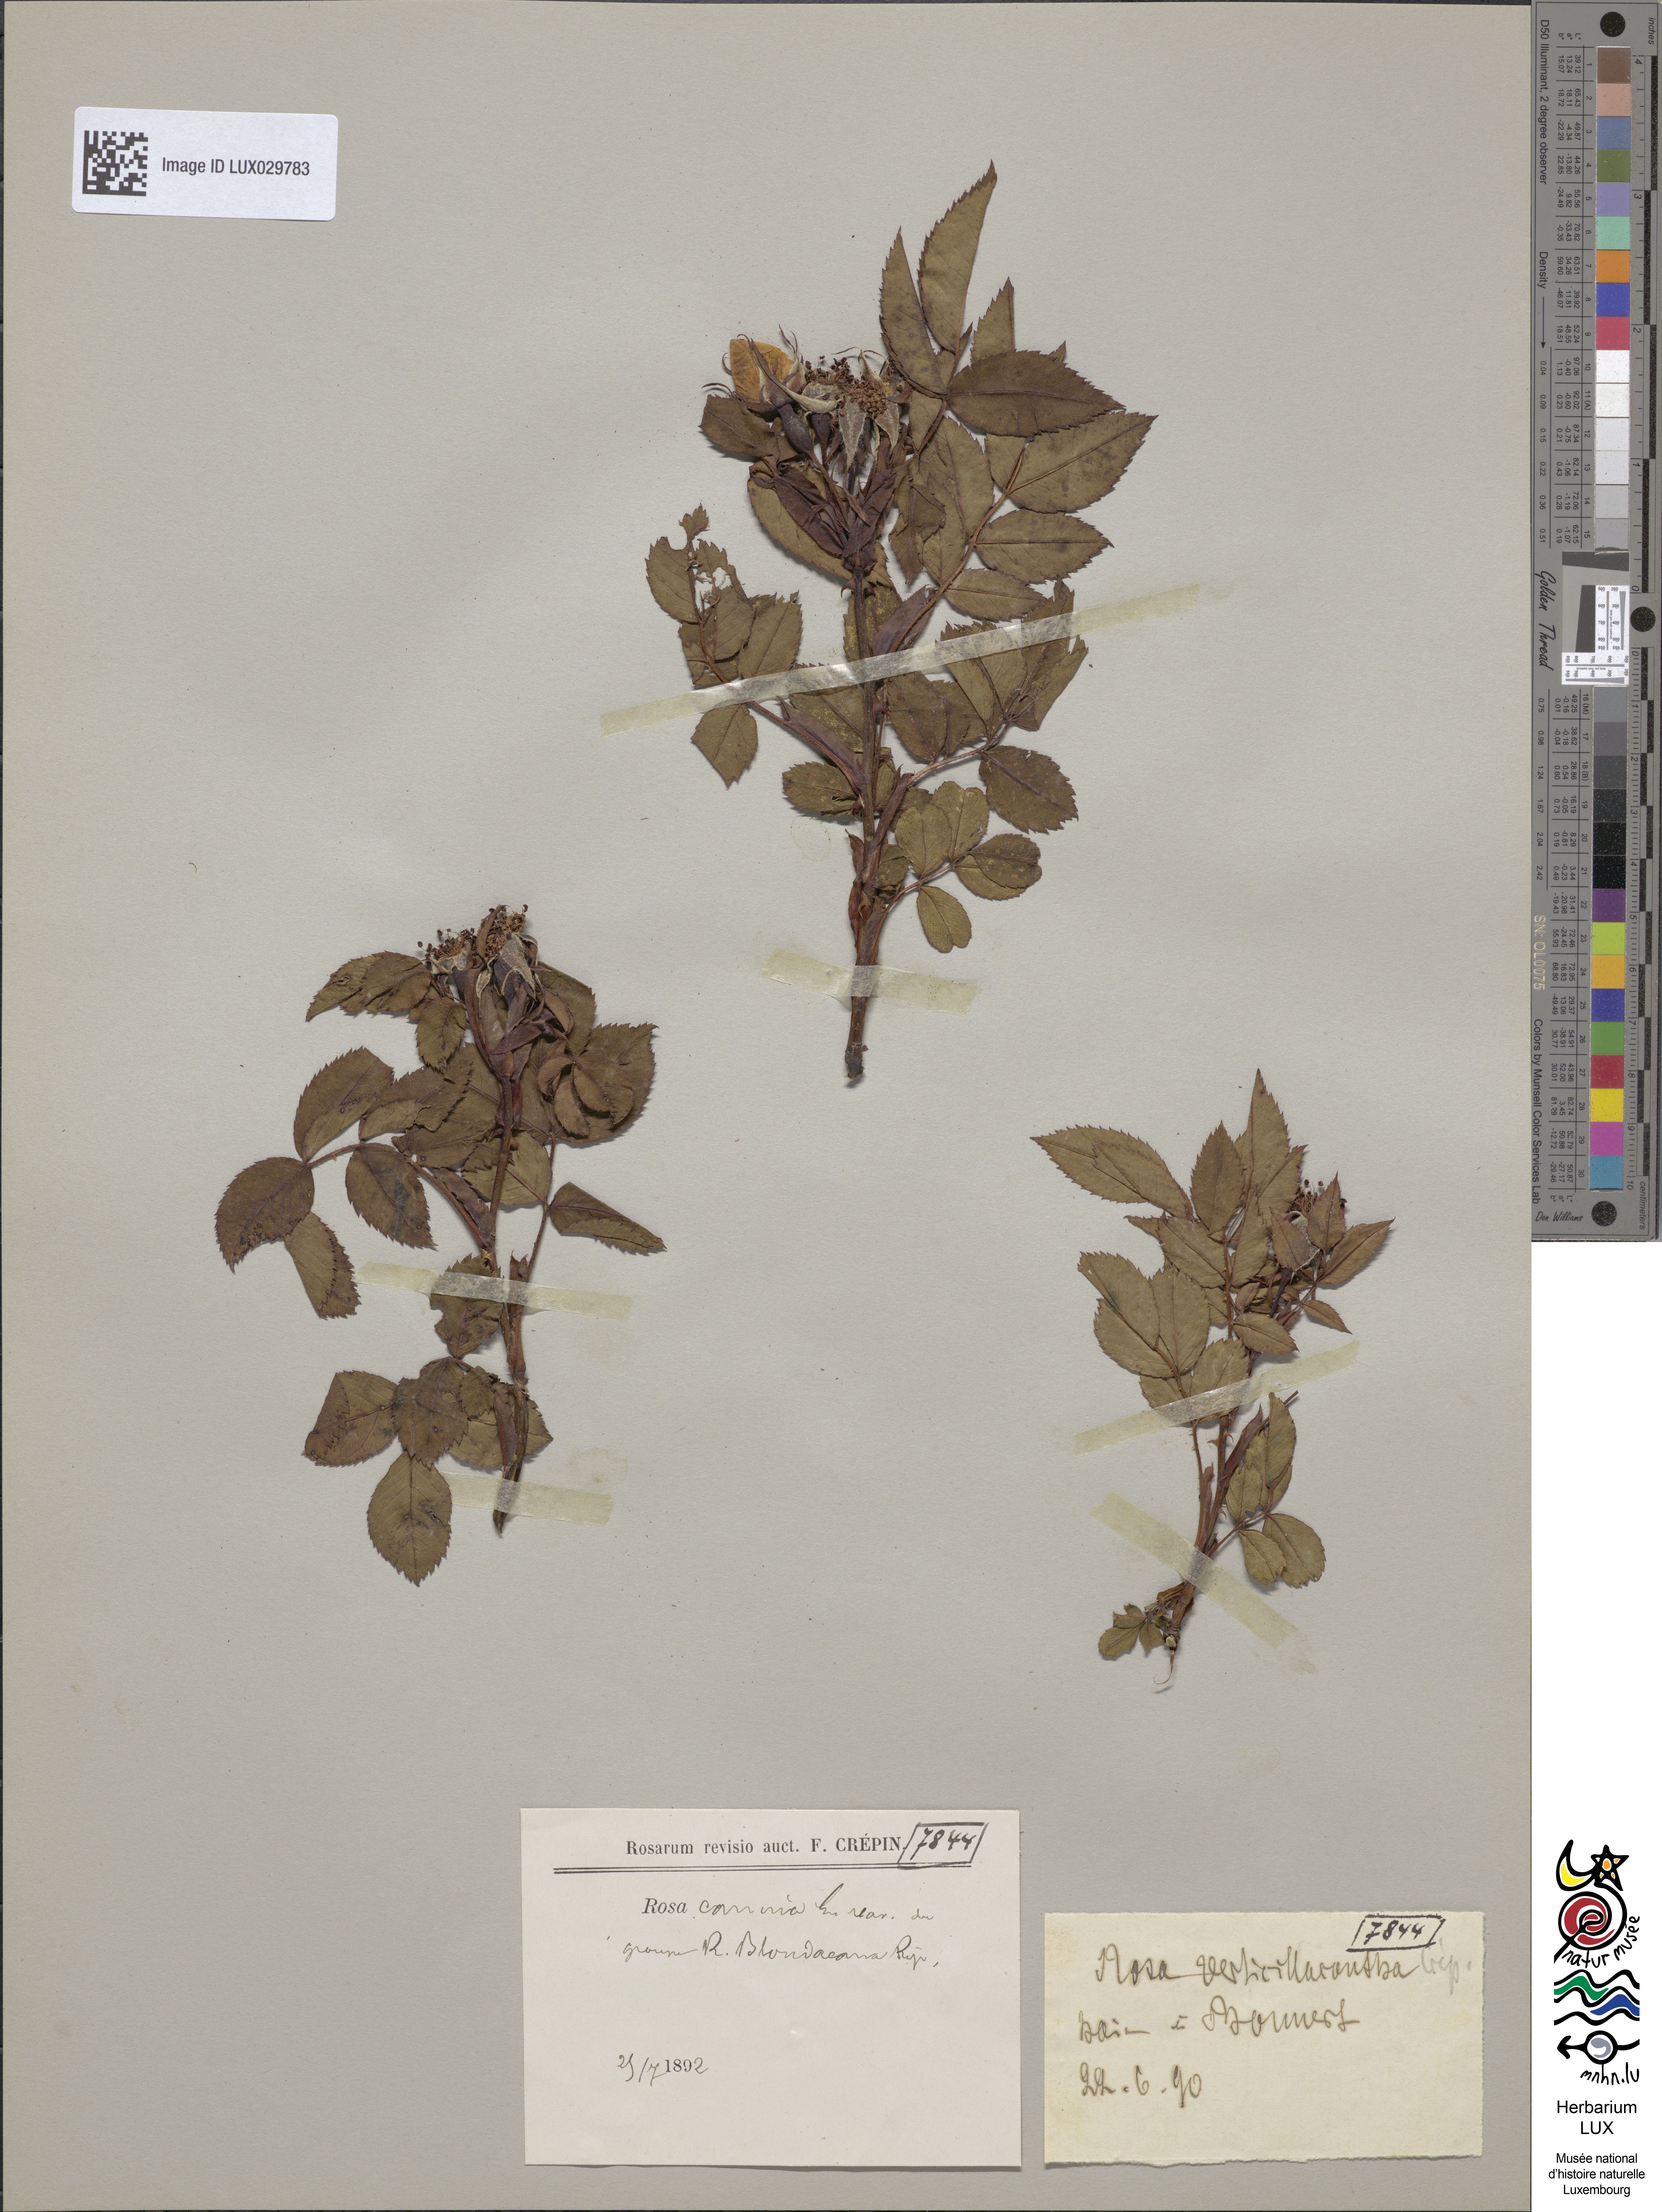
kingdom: Plantae
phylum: Tracheophyta
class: Magnoliopsida
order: Rosales
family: Rosaceae
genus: Rosa
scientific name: Rosa canina
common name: Dog rose
